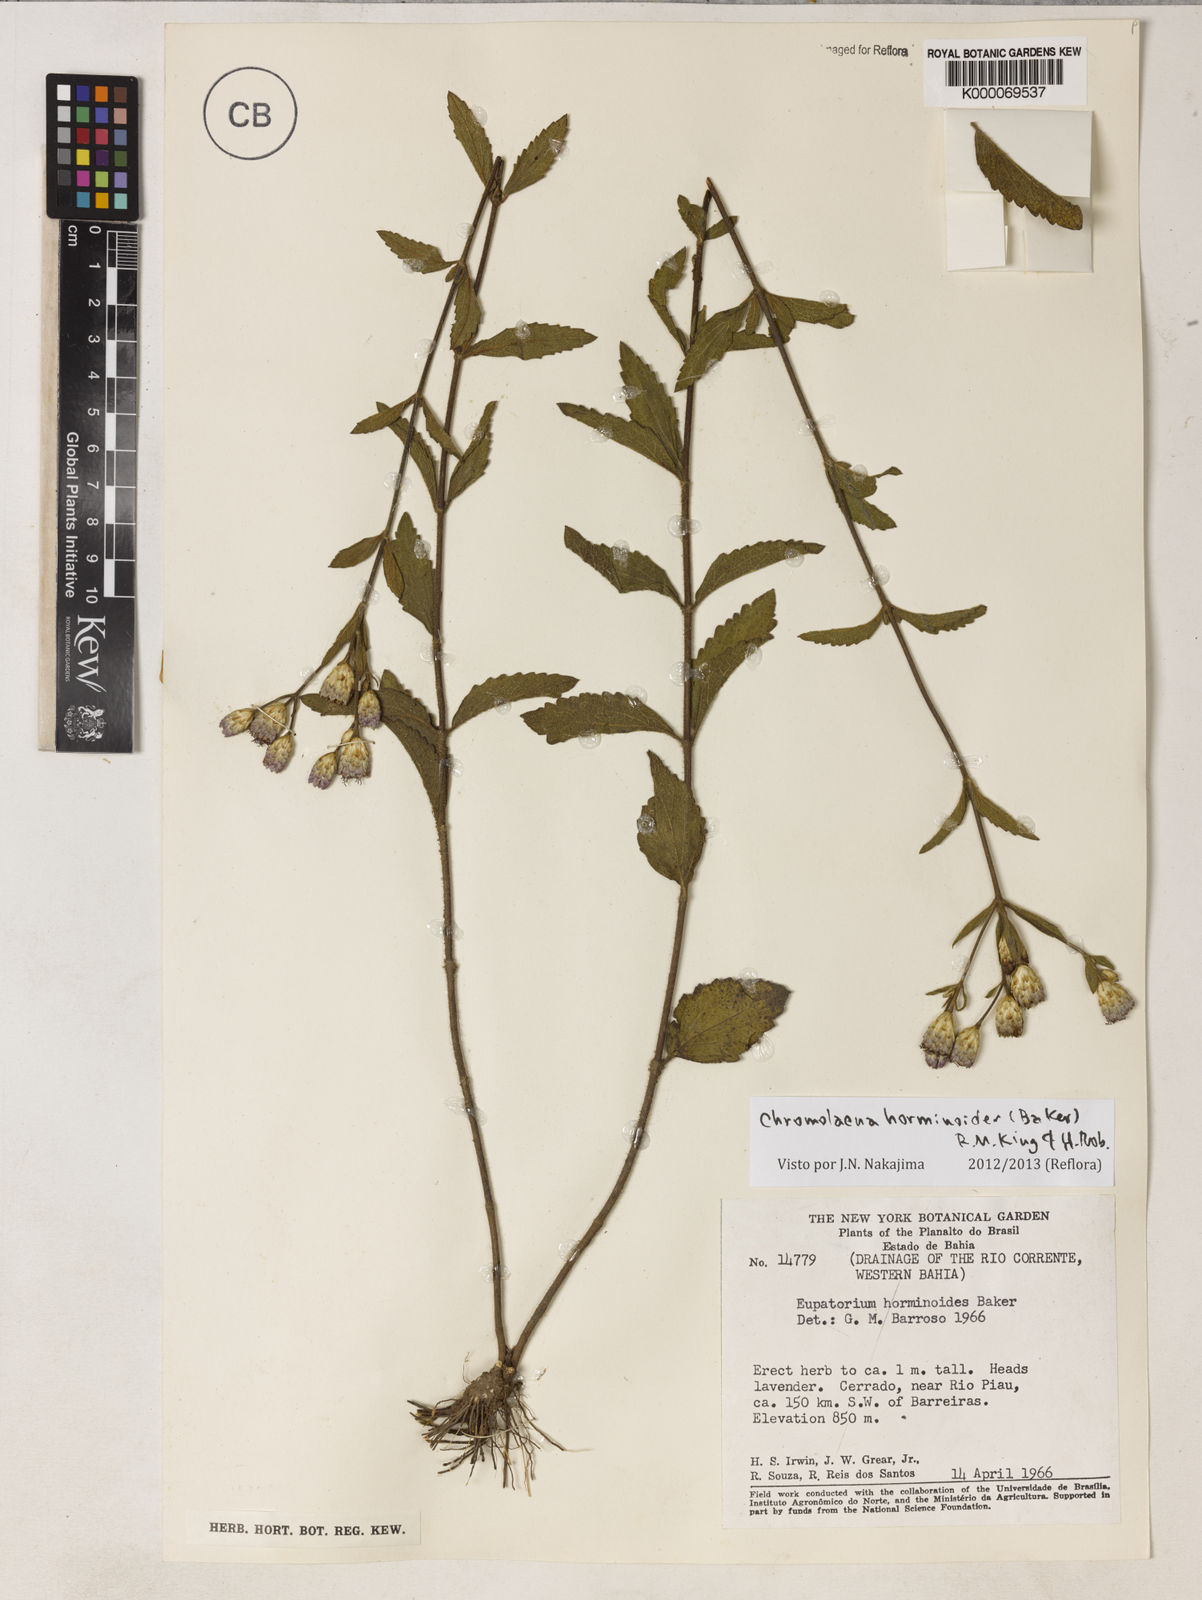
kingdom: Plantae
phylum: Tracheophyta
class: Magnoliopsida
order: Asterales
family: Asteraceae
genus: Chromolaena
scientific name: Chromolaena horminoides
